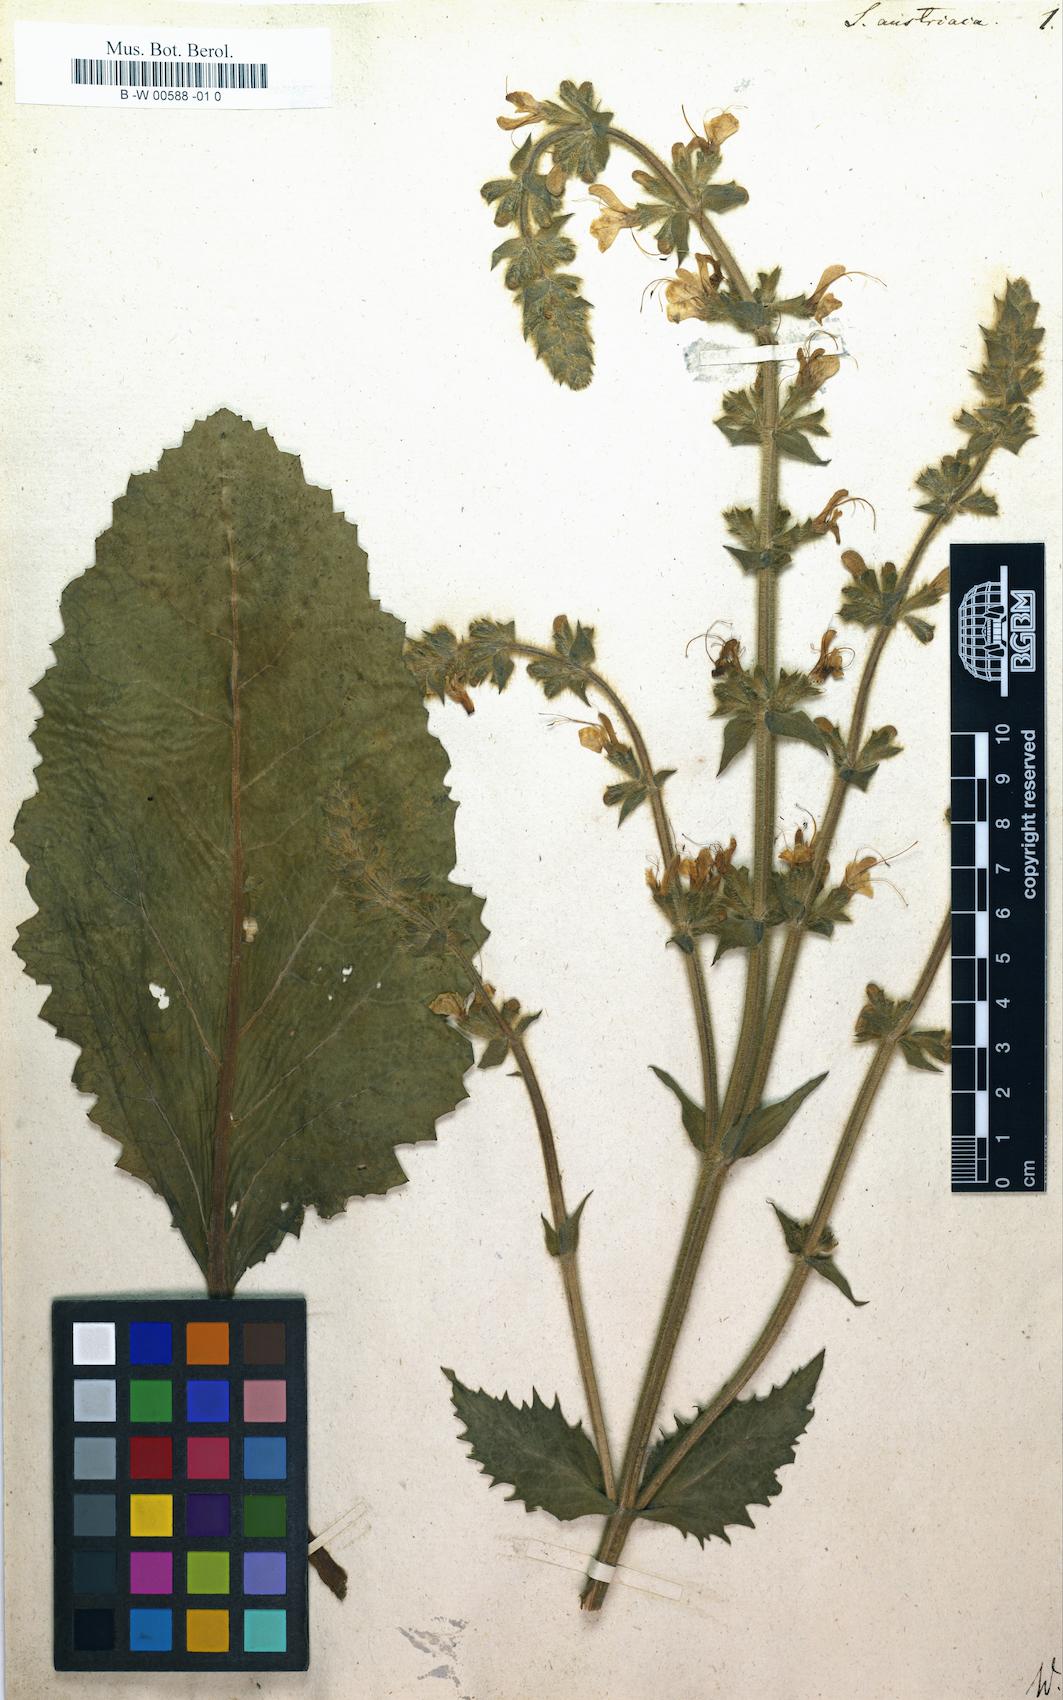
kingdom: Plantae
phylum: Tracheophyta
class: Magnoliopsida
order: Lamiales
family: Lamiaceae
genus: Salvia
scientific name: Salvia austriaca
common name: Austrian sage
